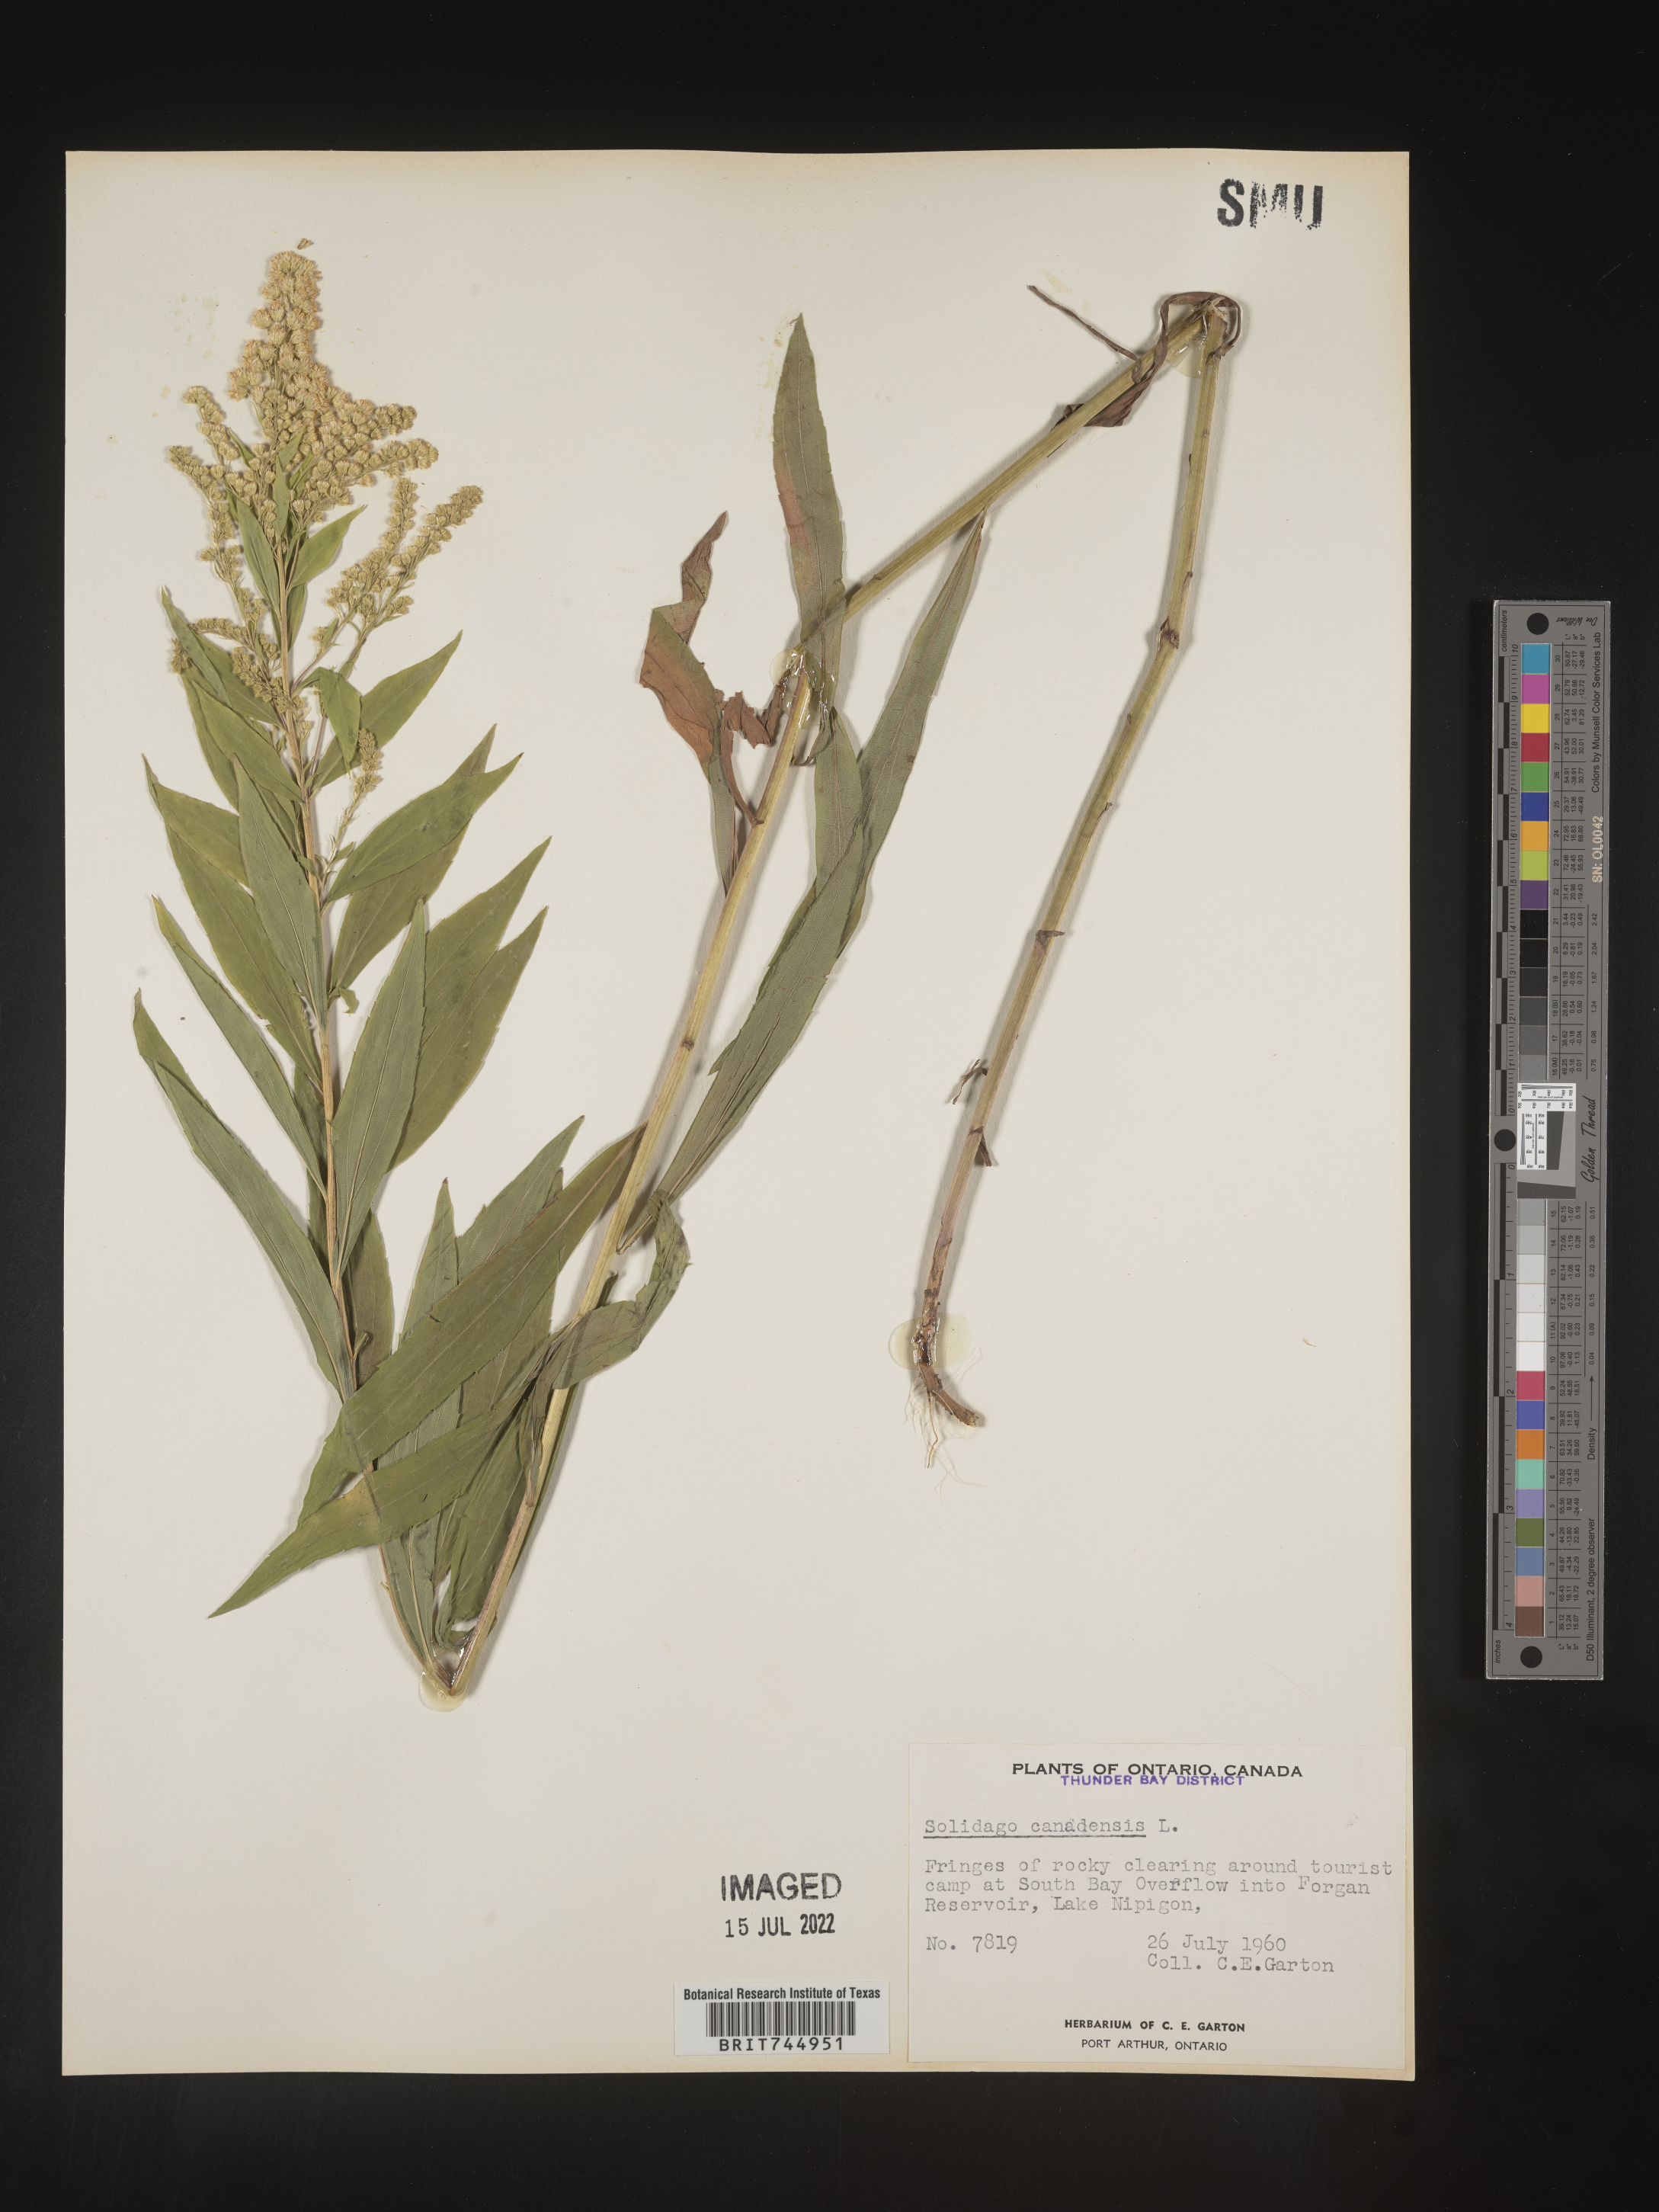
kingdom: Plantae
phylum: Tracheophyta
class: Magnoliopsida
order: Asterales
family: Asteraceae
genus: Solidago
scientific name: Solidago canadensis
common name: Canada goldenrod
